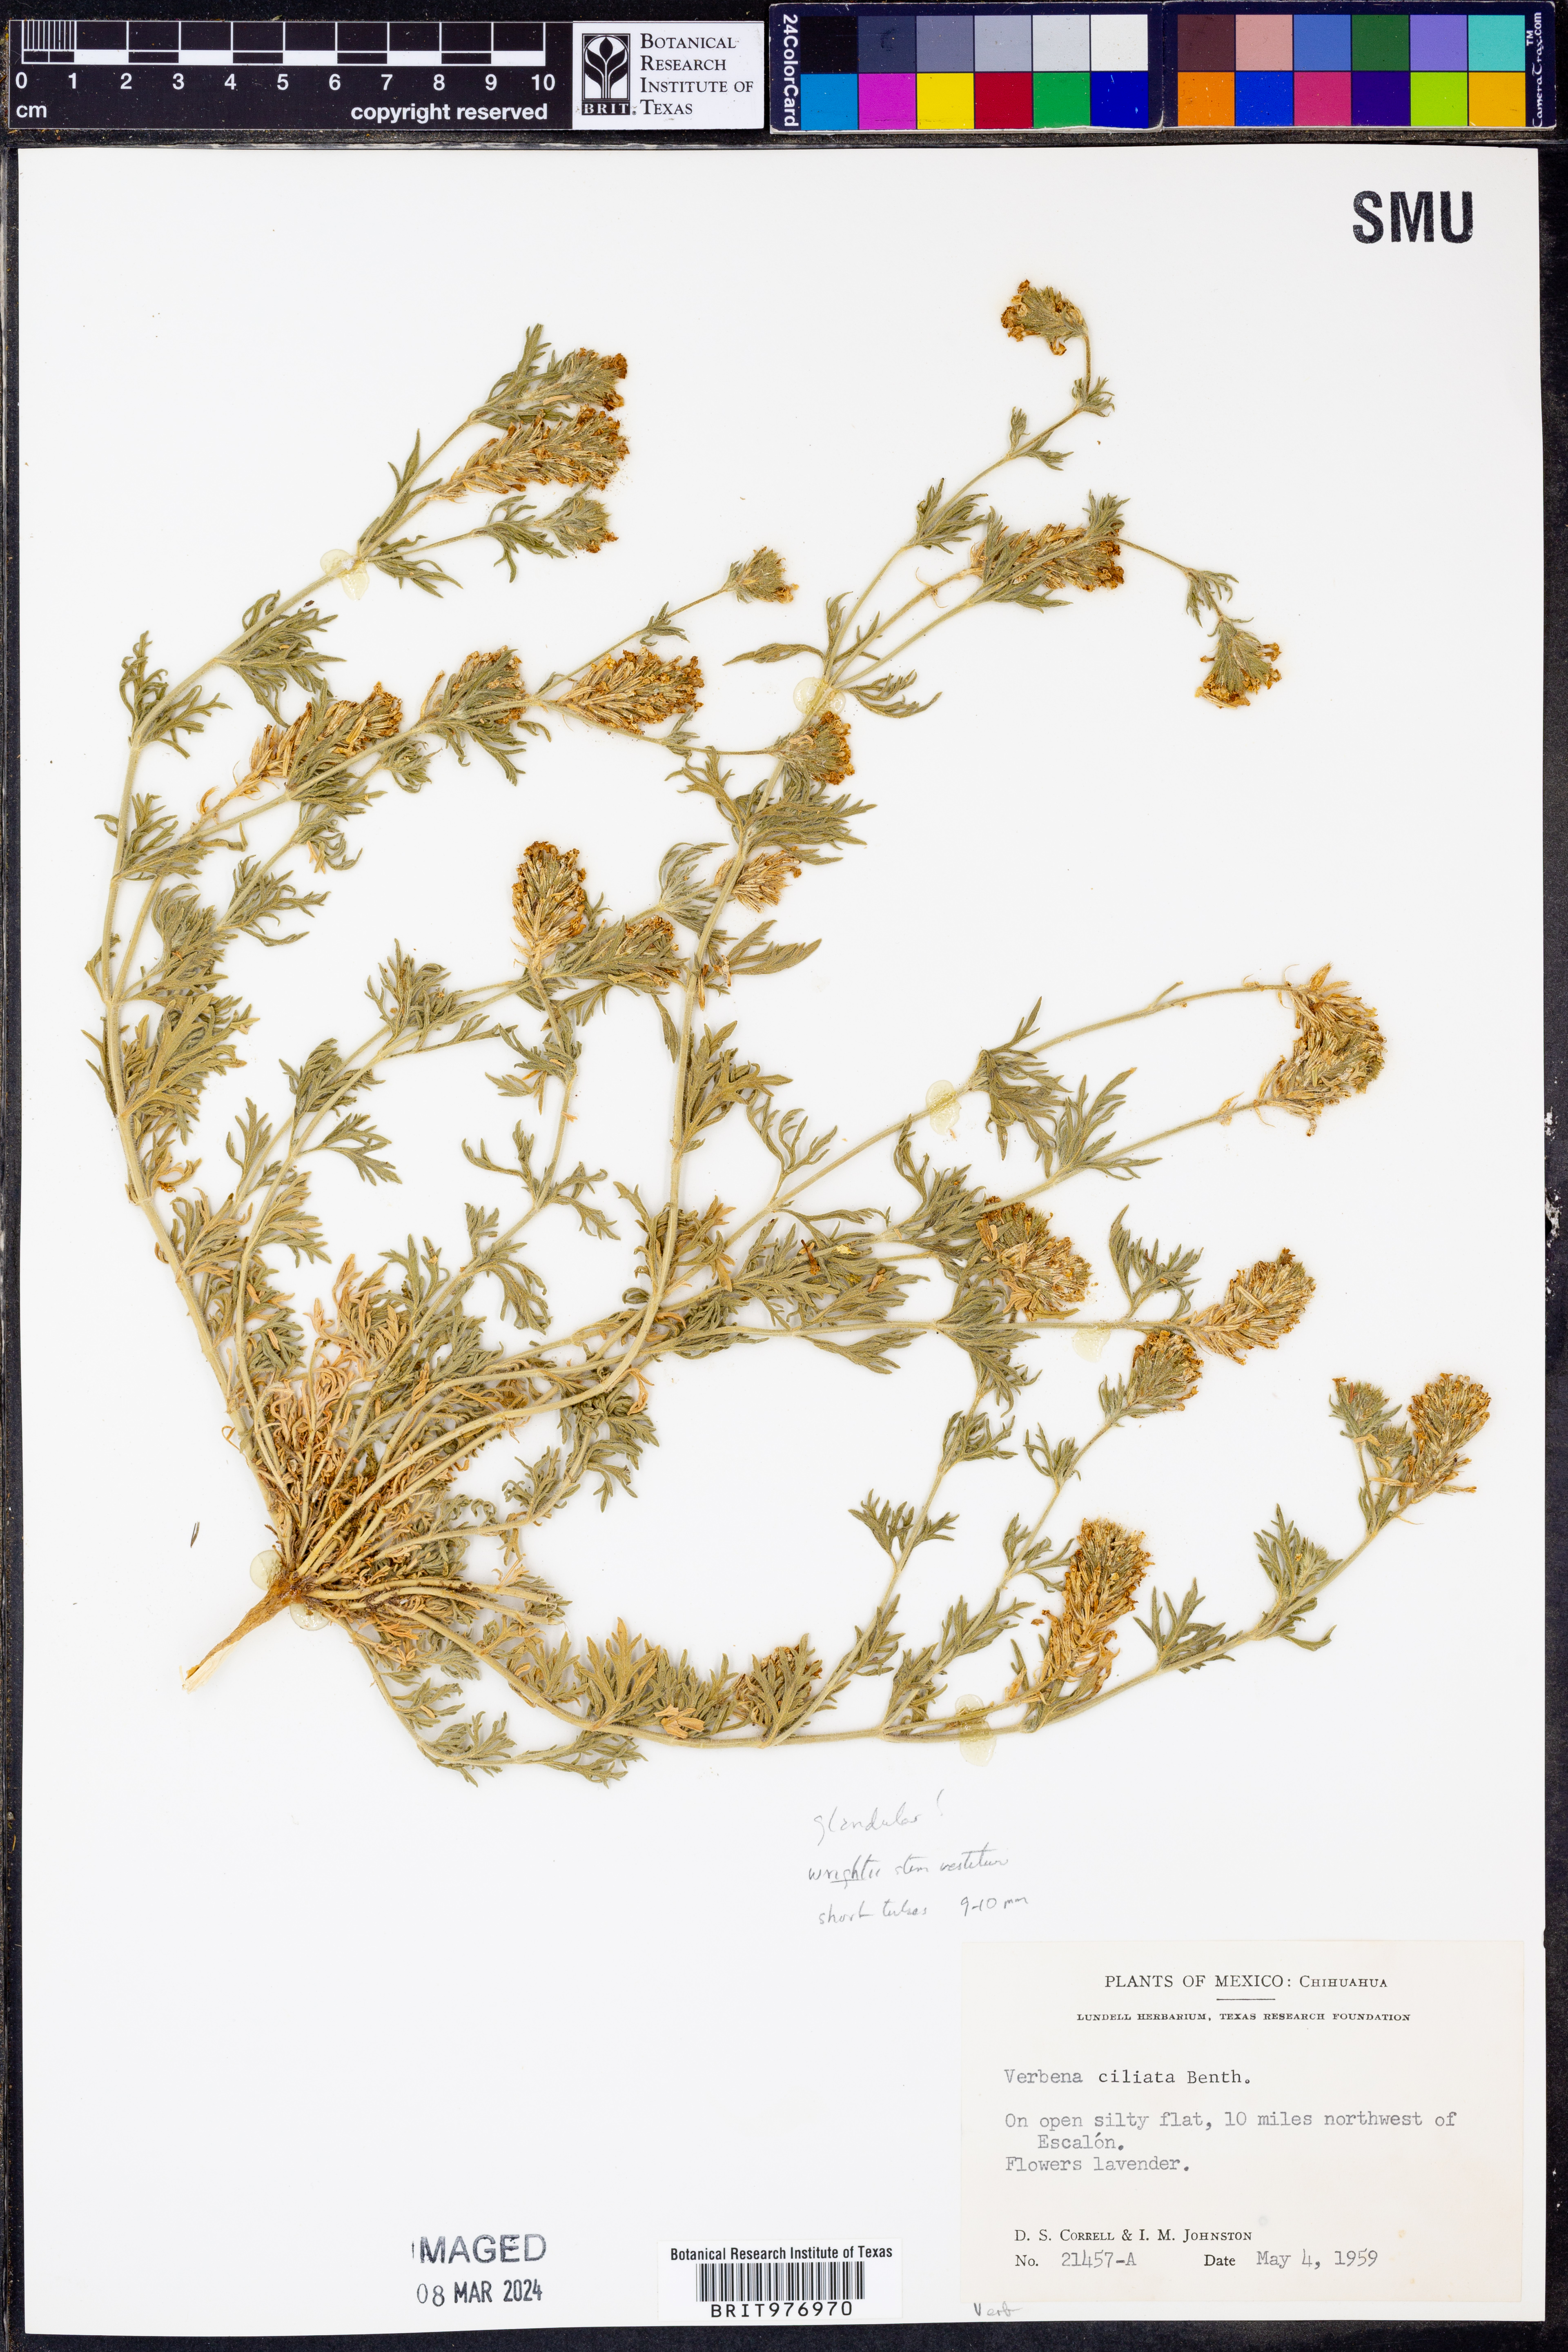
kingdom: Plantae
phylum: Tracheophyta
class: Magnoliopsida
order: Lamiales
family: Verbenaceae
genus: Verbena
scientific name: Verbena
